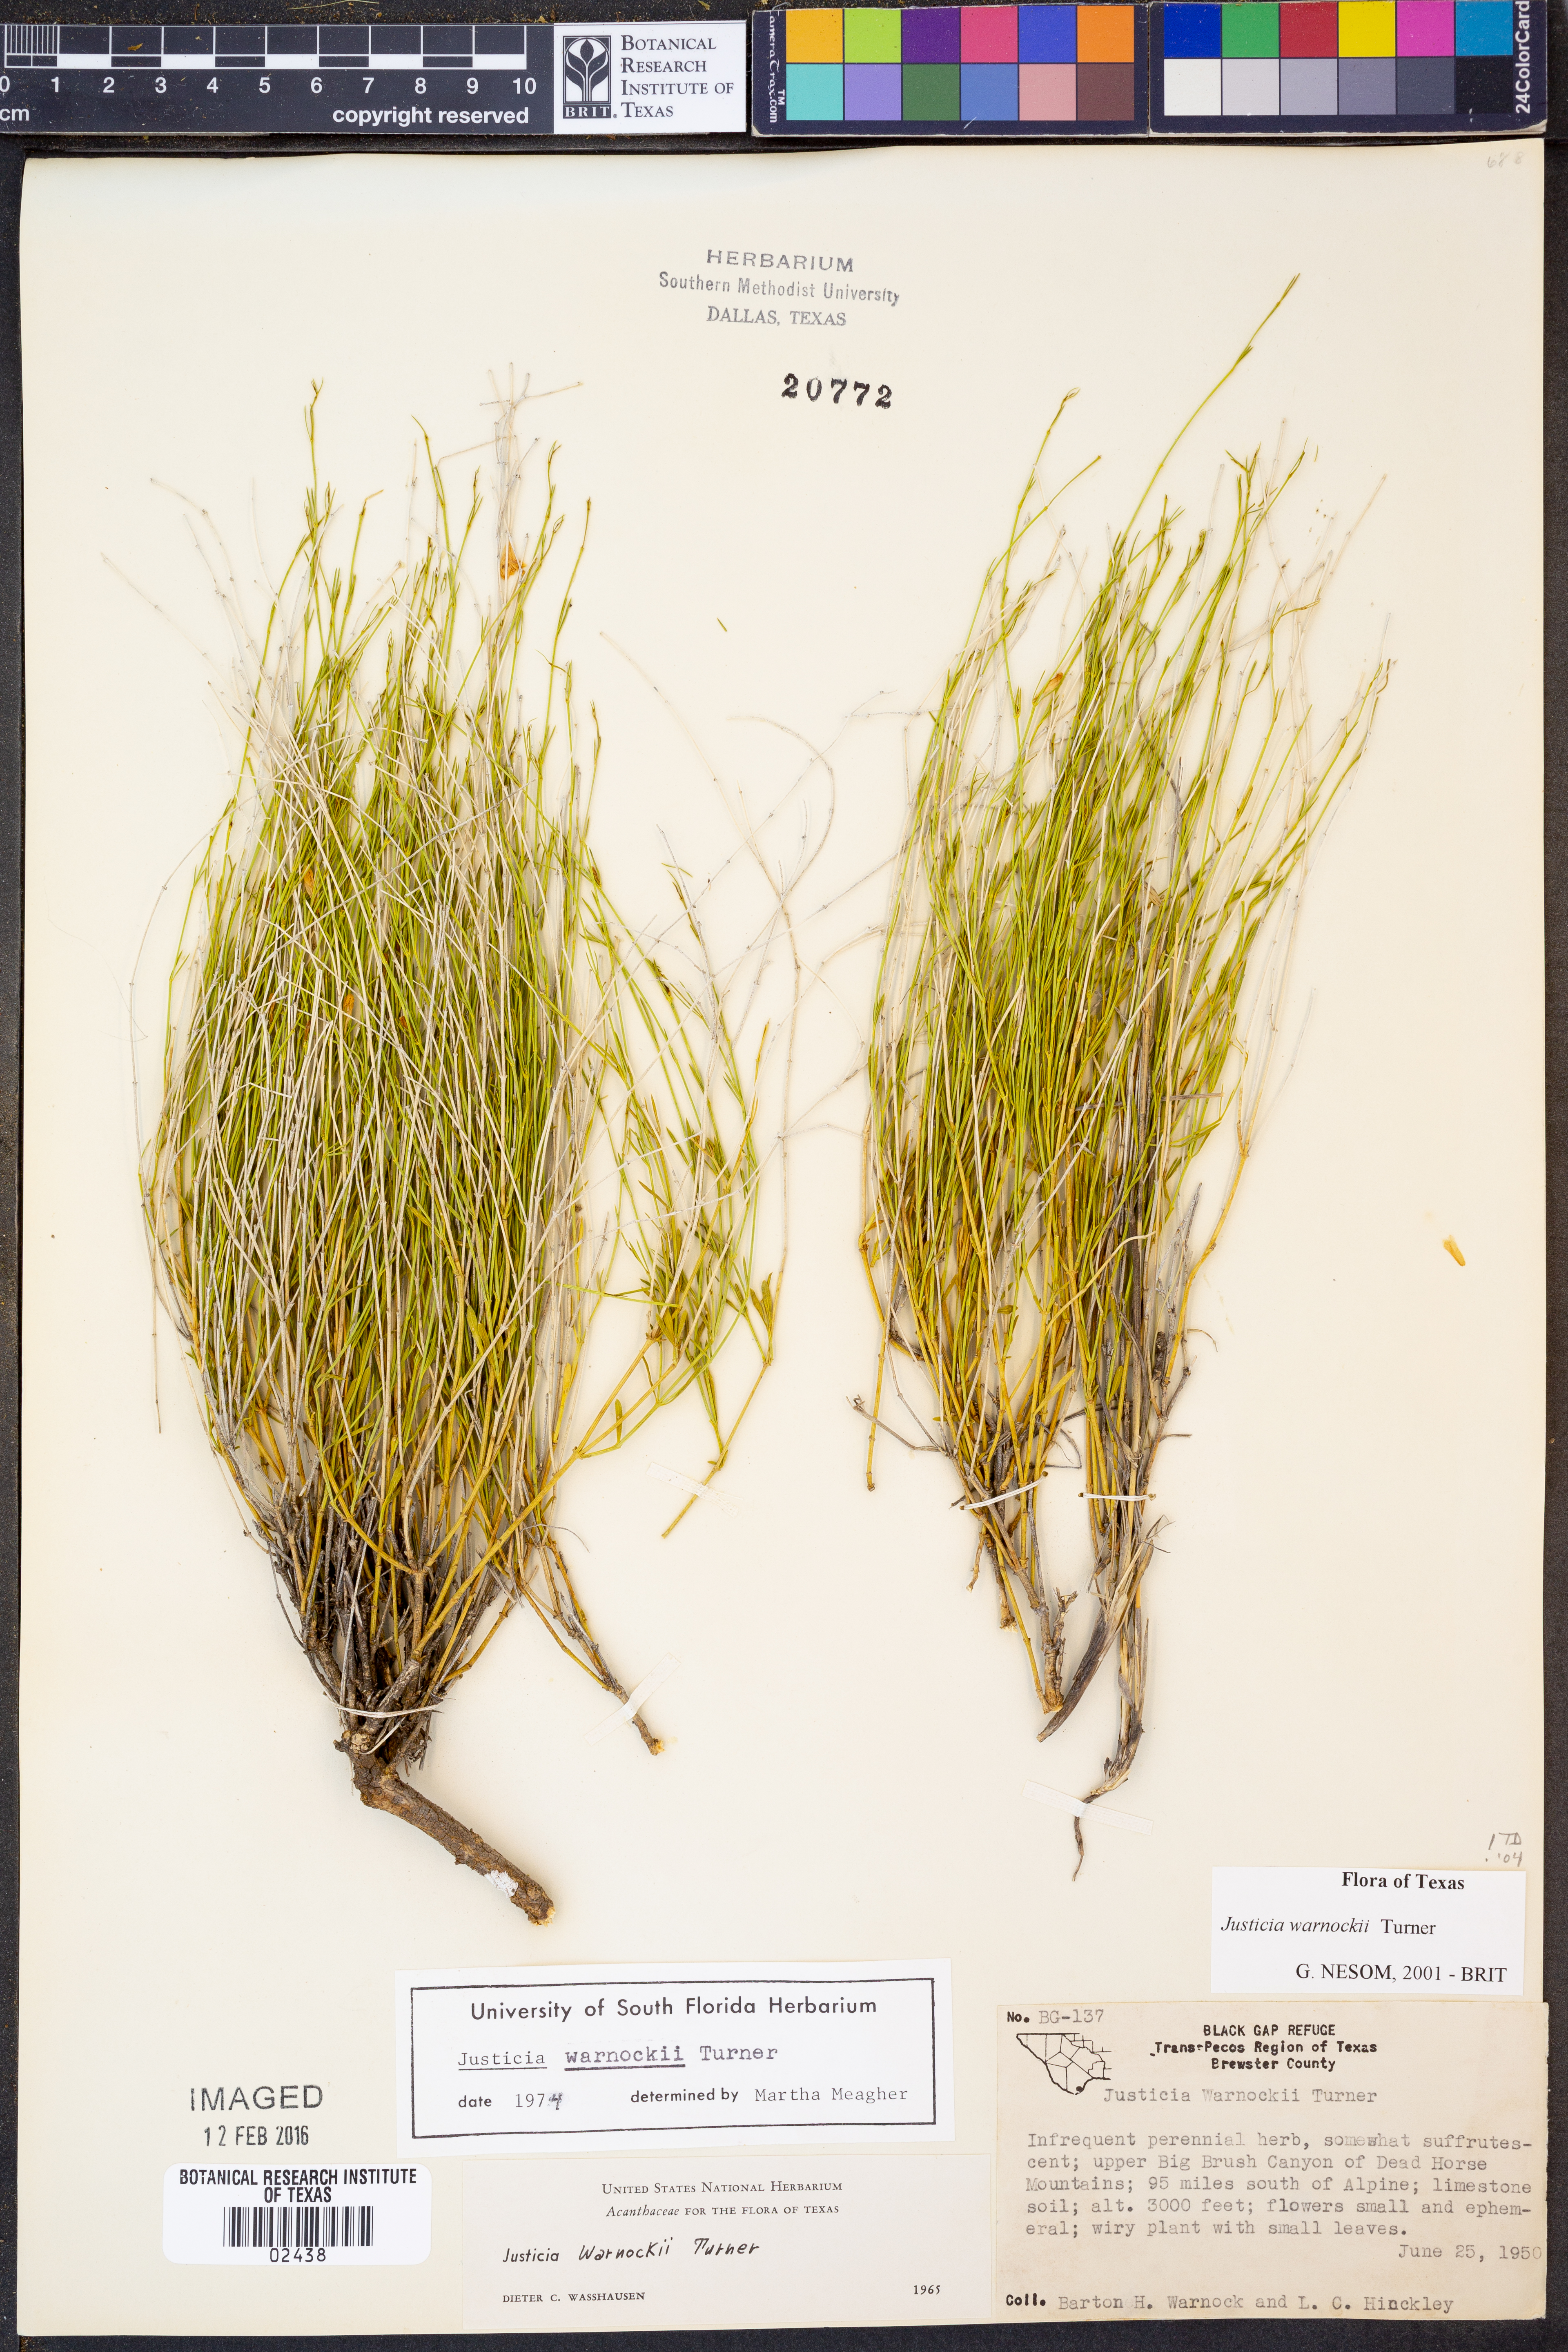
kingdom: Plantae
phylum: Tracheophyta
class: Magnoliopsida
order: Lamiales
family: Acanthaceae
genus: Justicia
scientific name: Justicia warnockii
